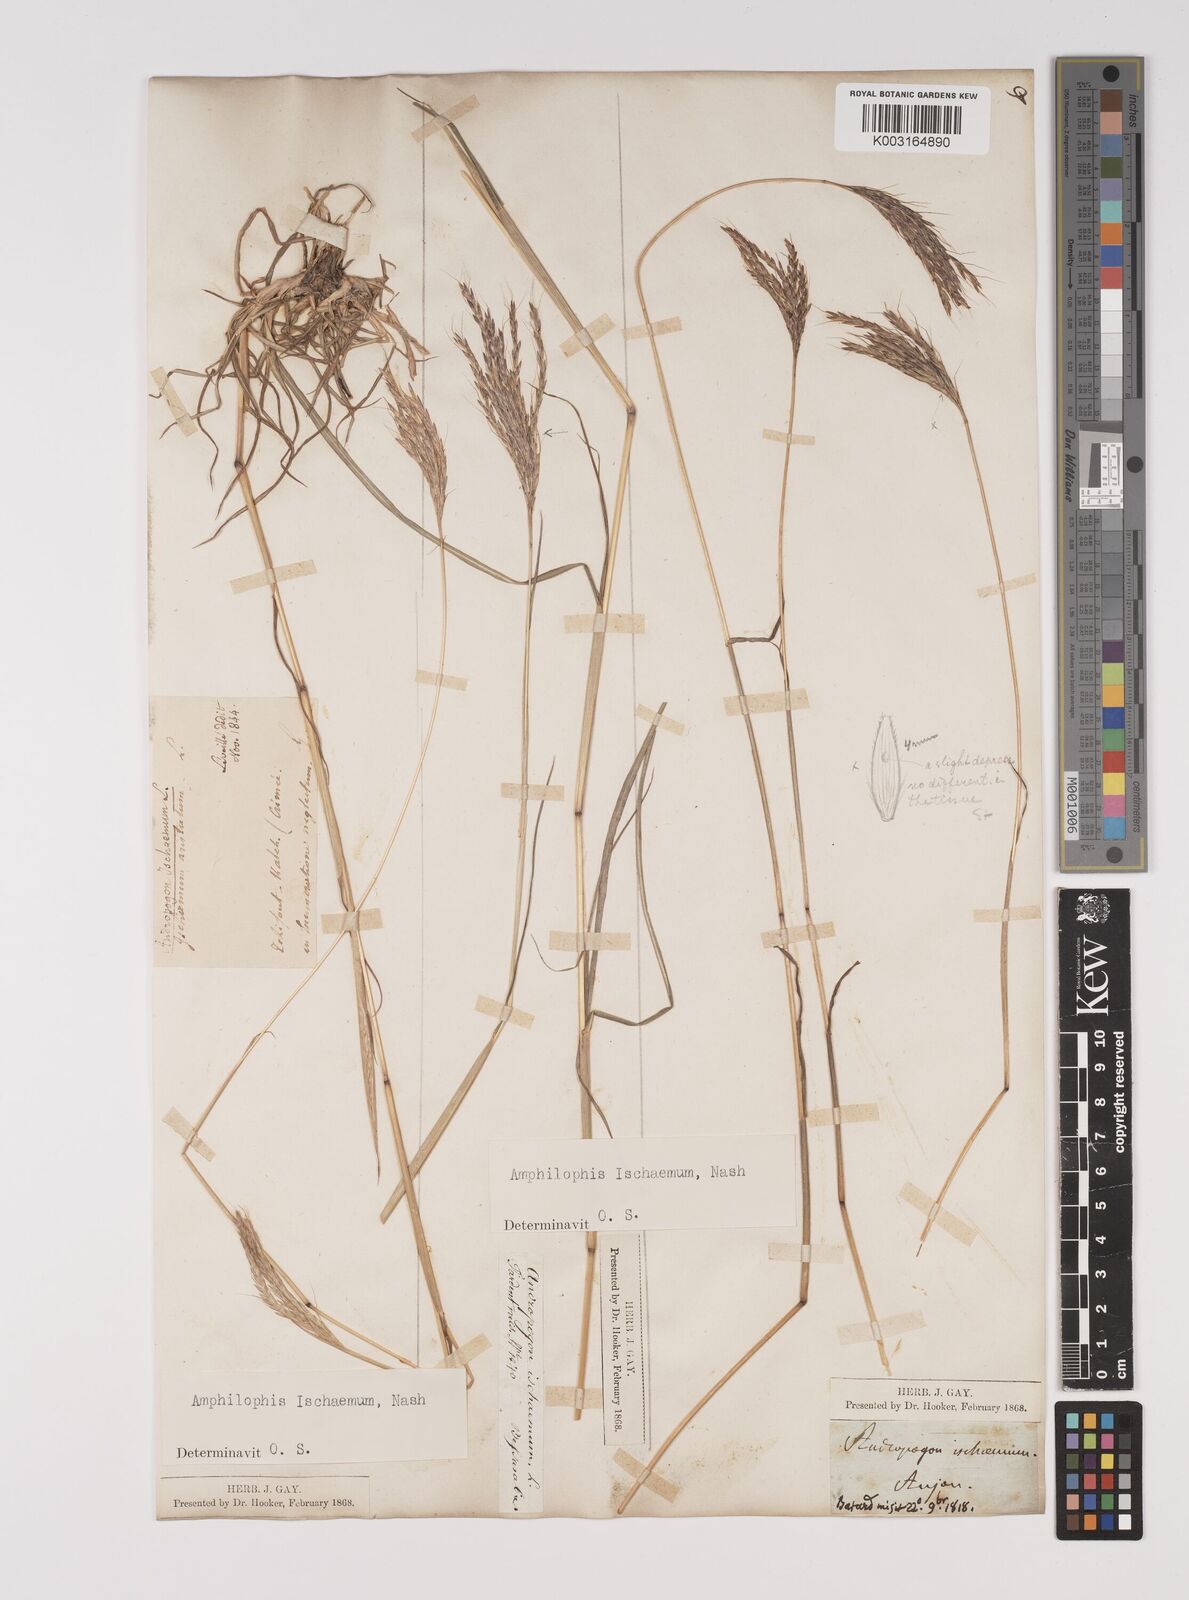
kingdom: Plantae
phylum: Tracheophyta
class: Liliopsida
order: Poales
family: Poaceae
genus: Bothriochloa
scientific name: Bothriochloa ischaemum
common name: Yellow bluestem
